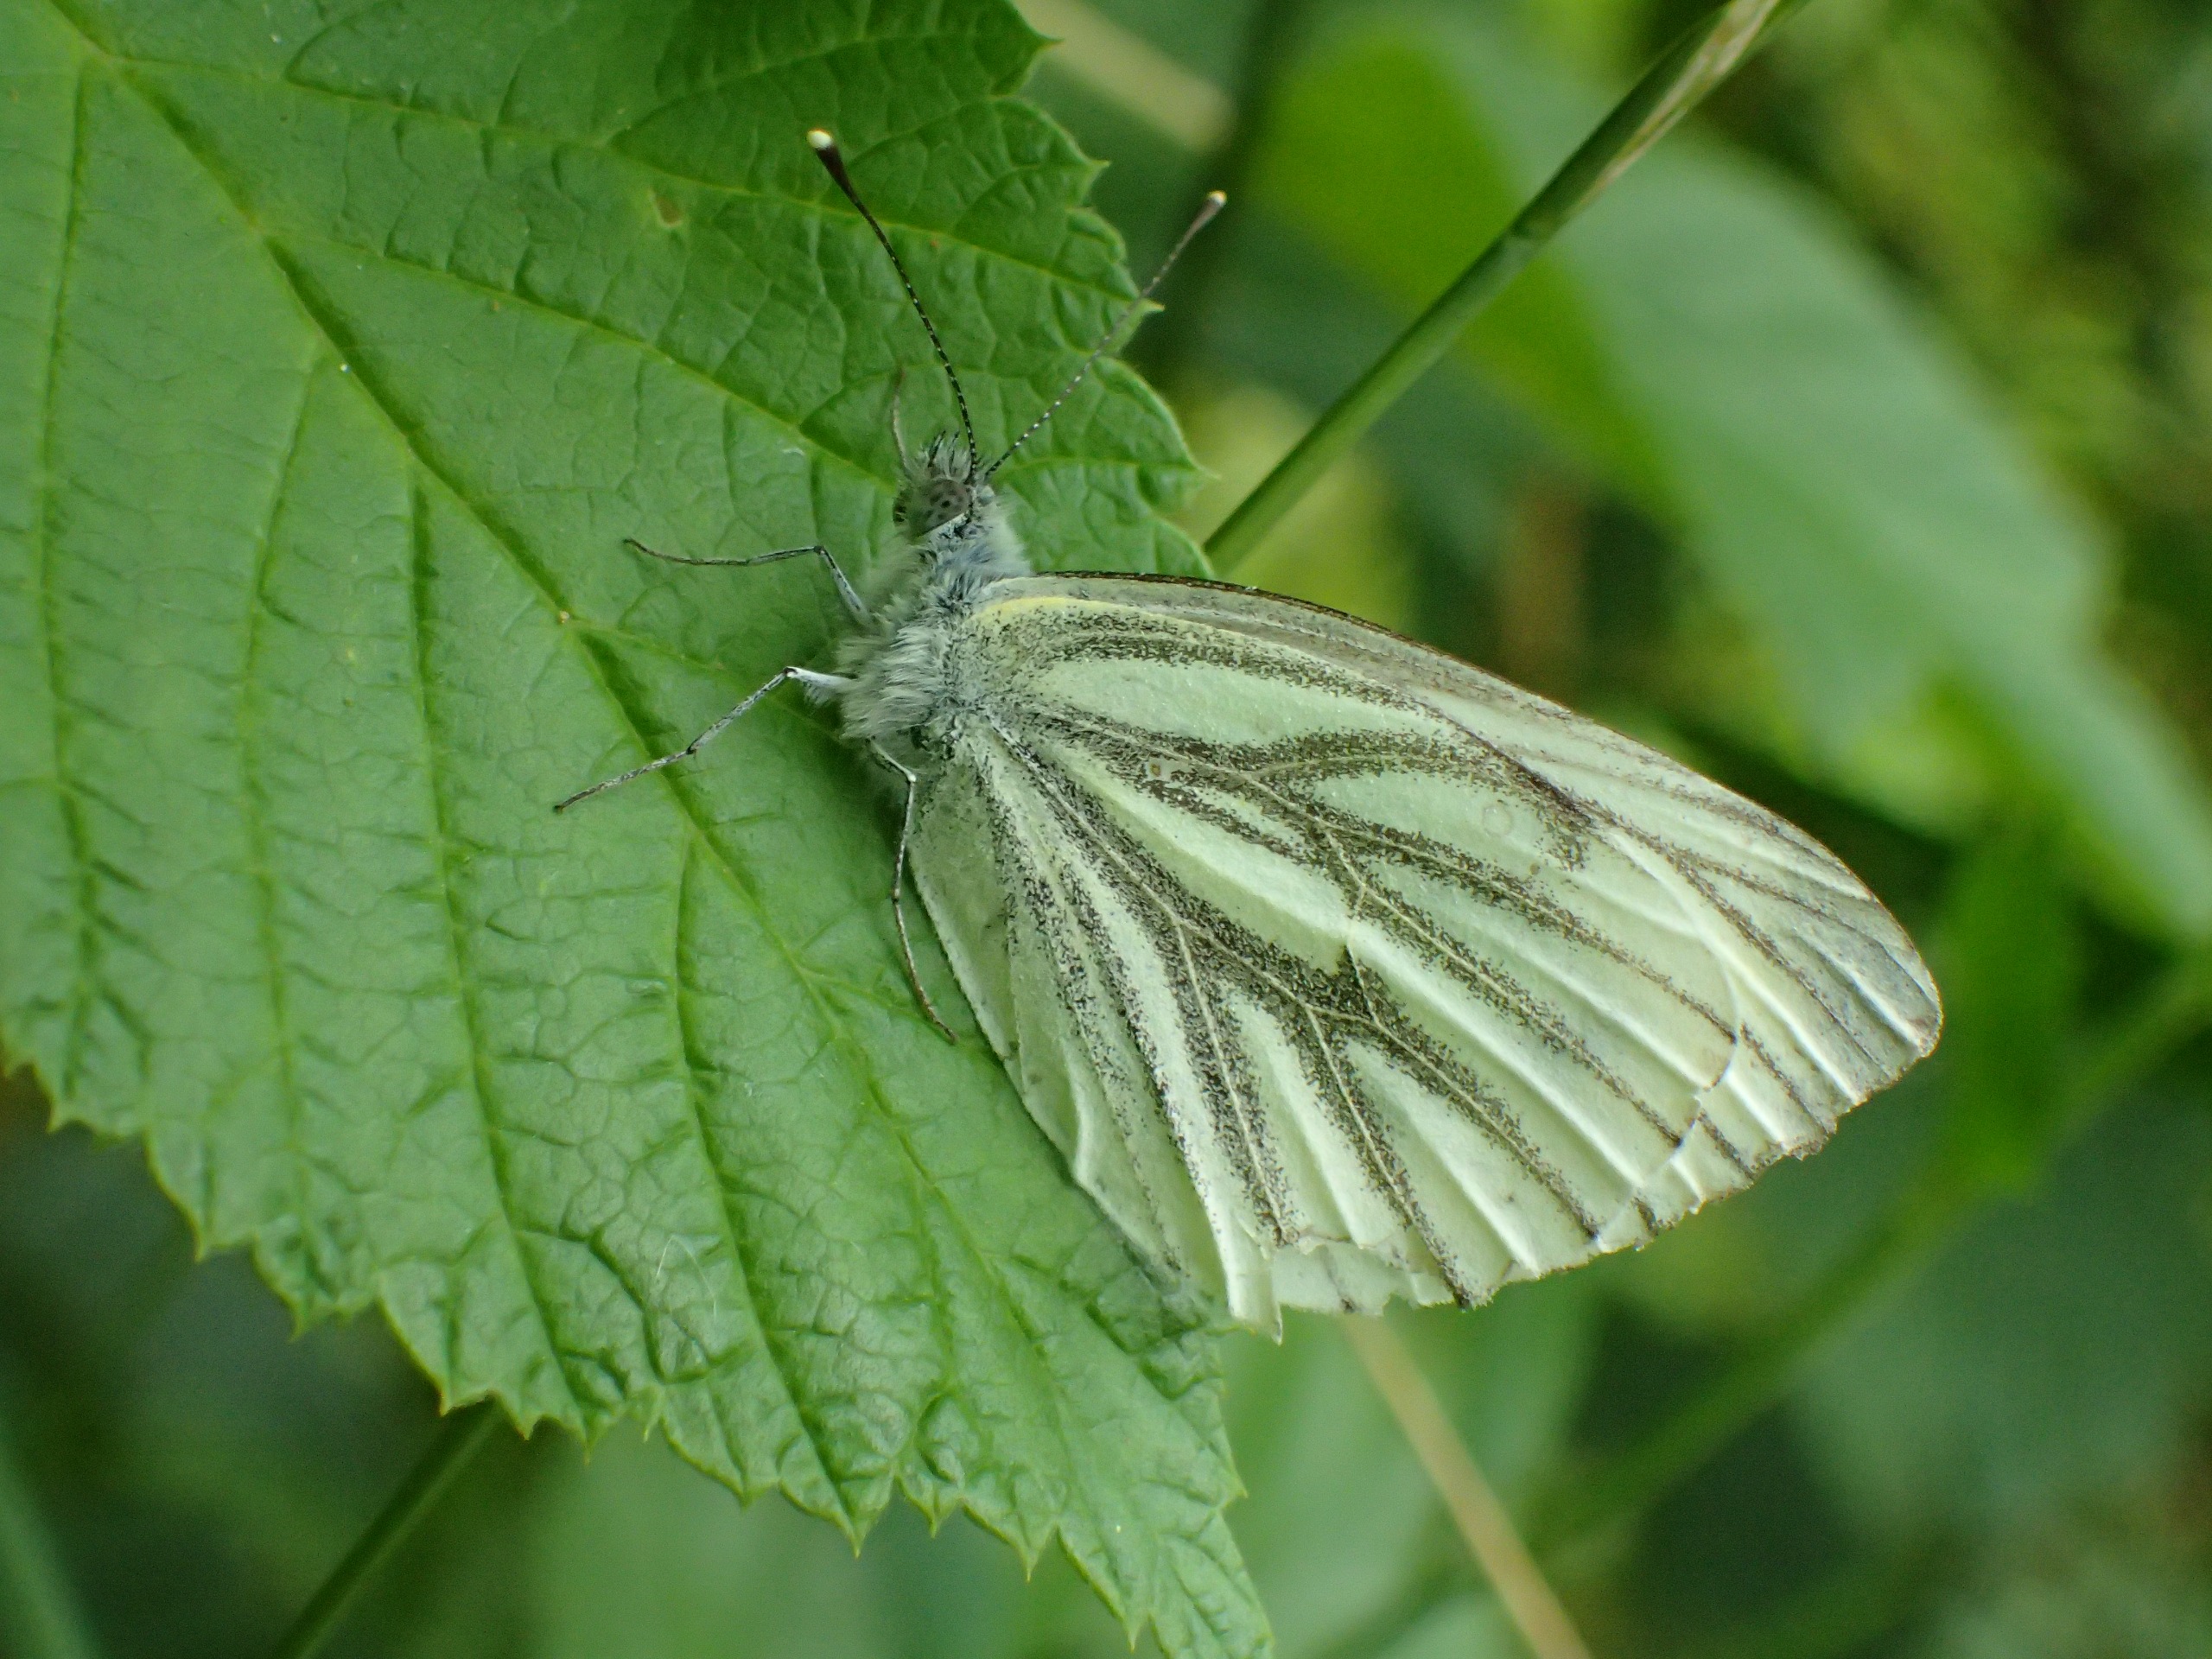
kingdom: Animalia
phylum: Arthropoda
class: Insecta
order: Lepidoptera
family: Pieridae
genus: Pieris
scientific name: Pieris napi
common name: Grønåret kålsommerfugl
